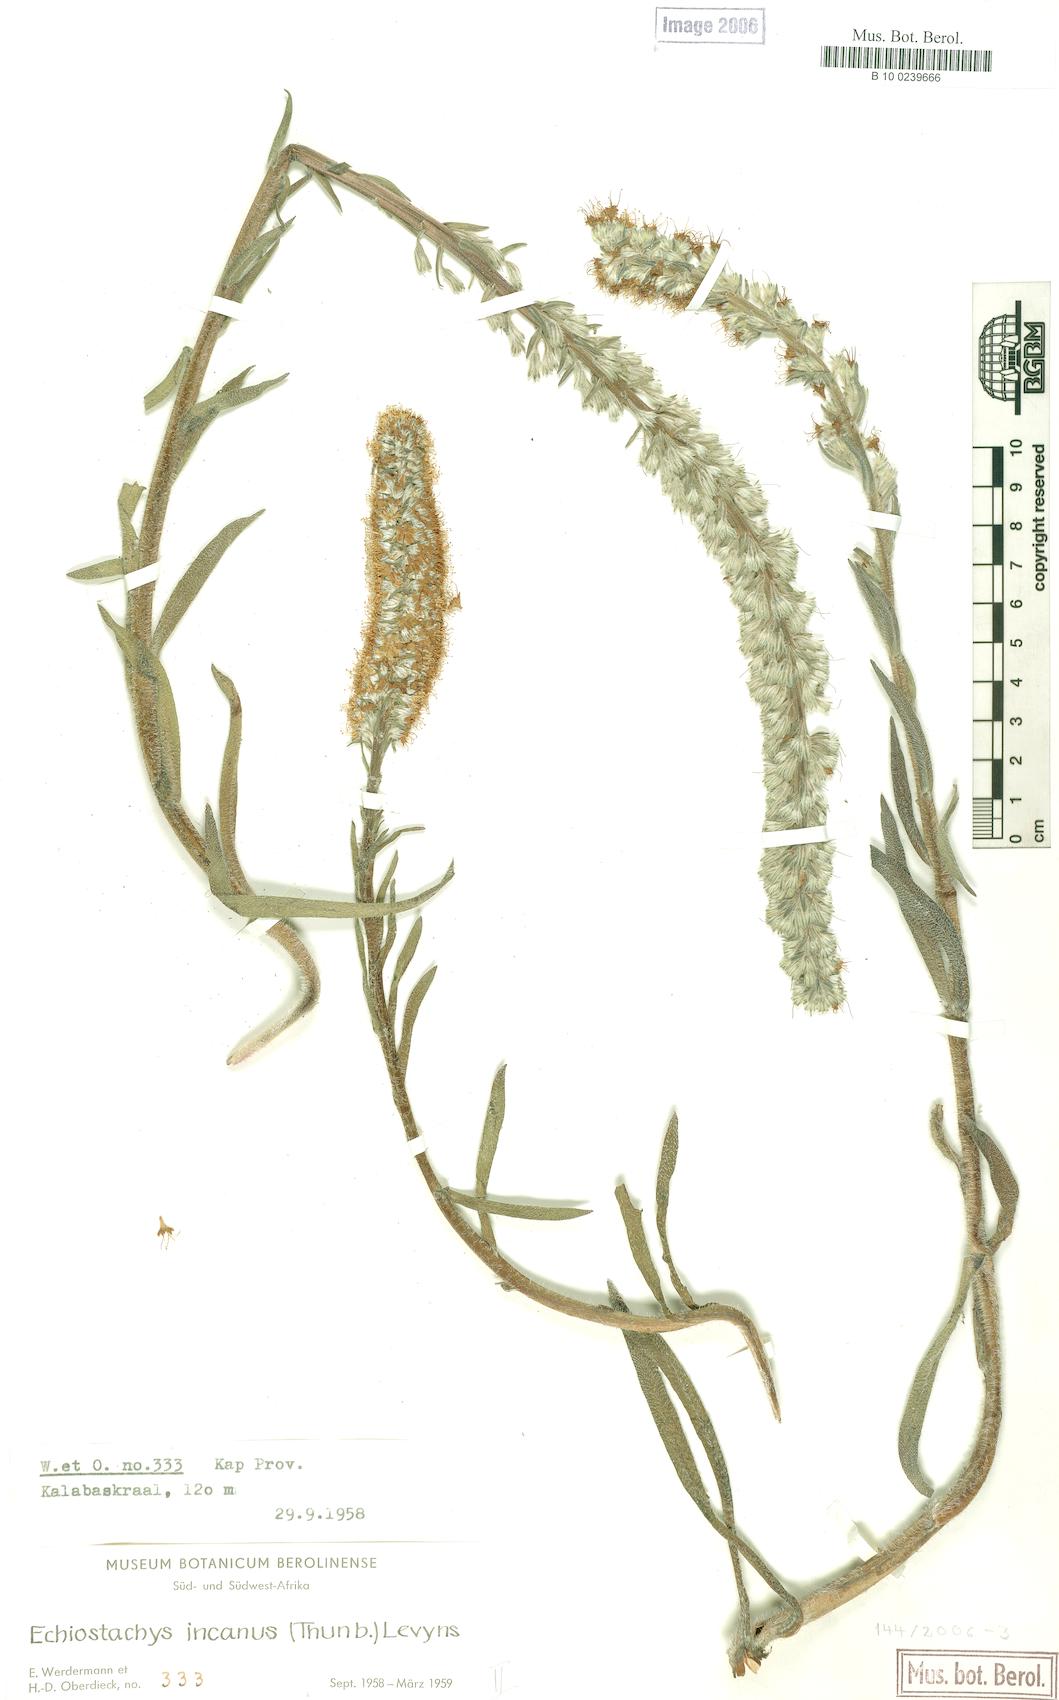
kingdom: Plantae
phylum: Tracheophyta
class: Magnoliopsida
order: Boraginales
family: Boraginaceae
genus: Lobostemon
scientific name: Lobostemon splendens
